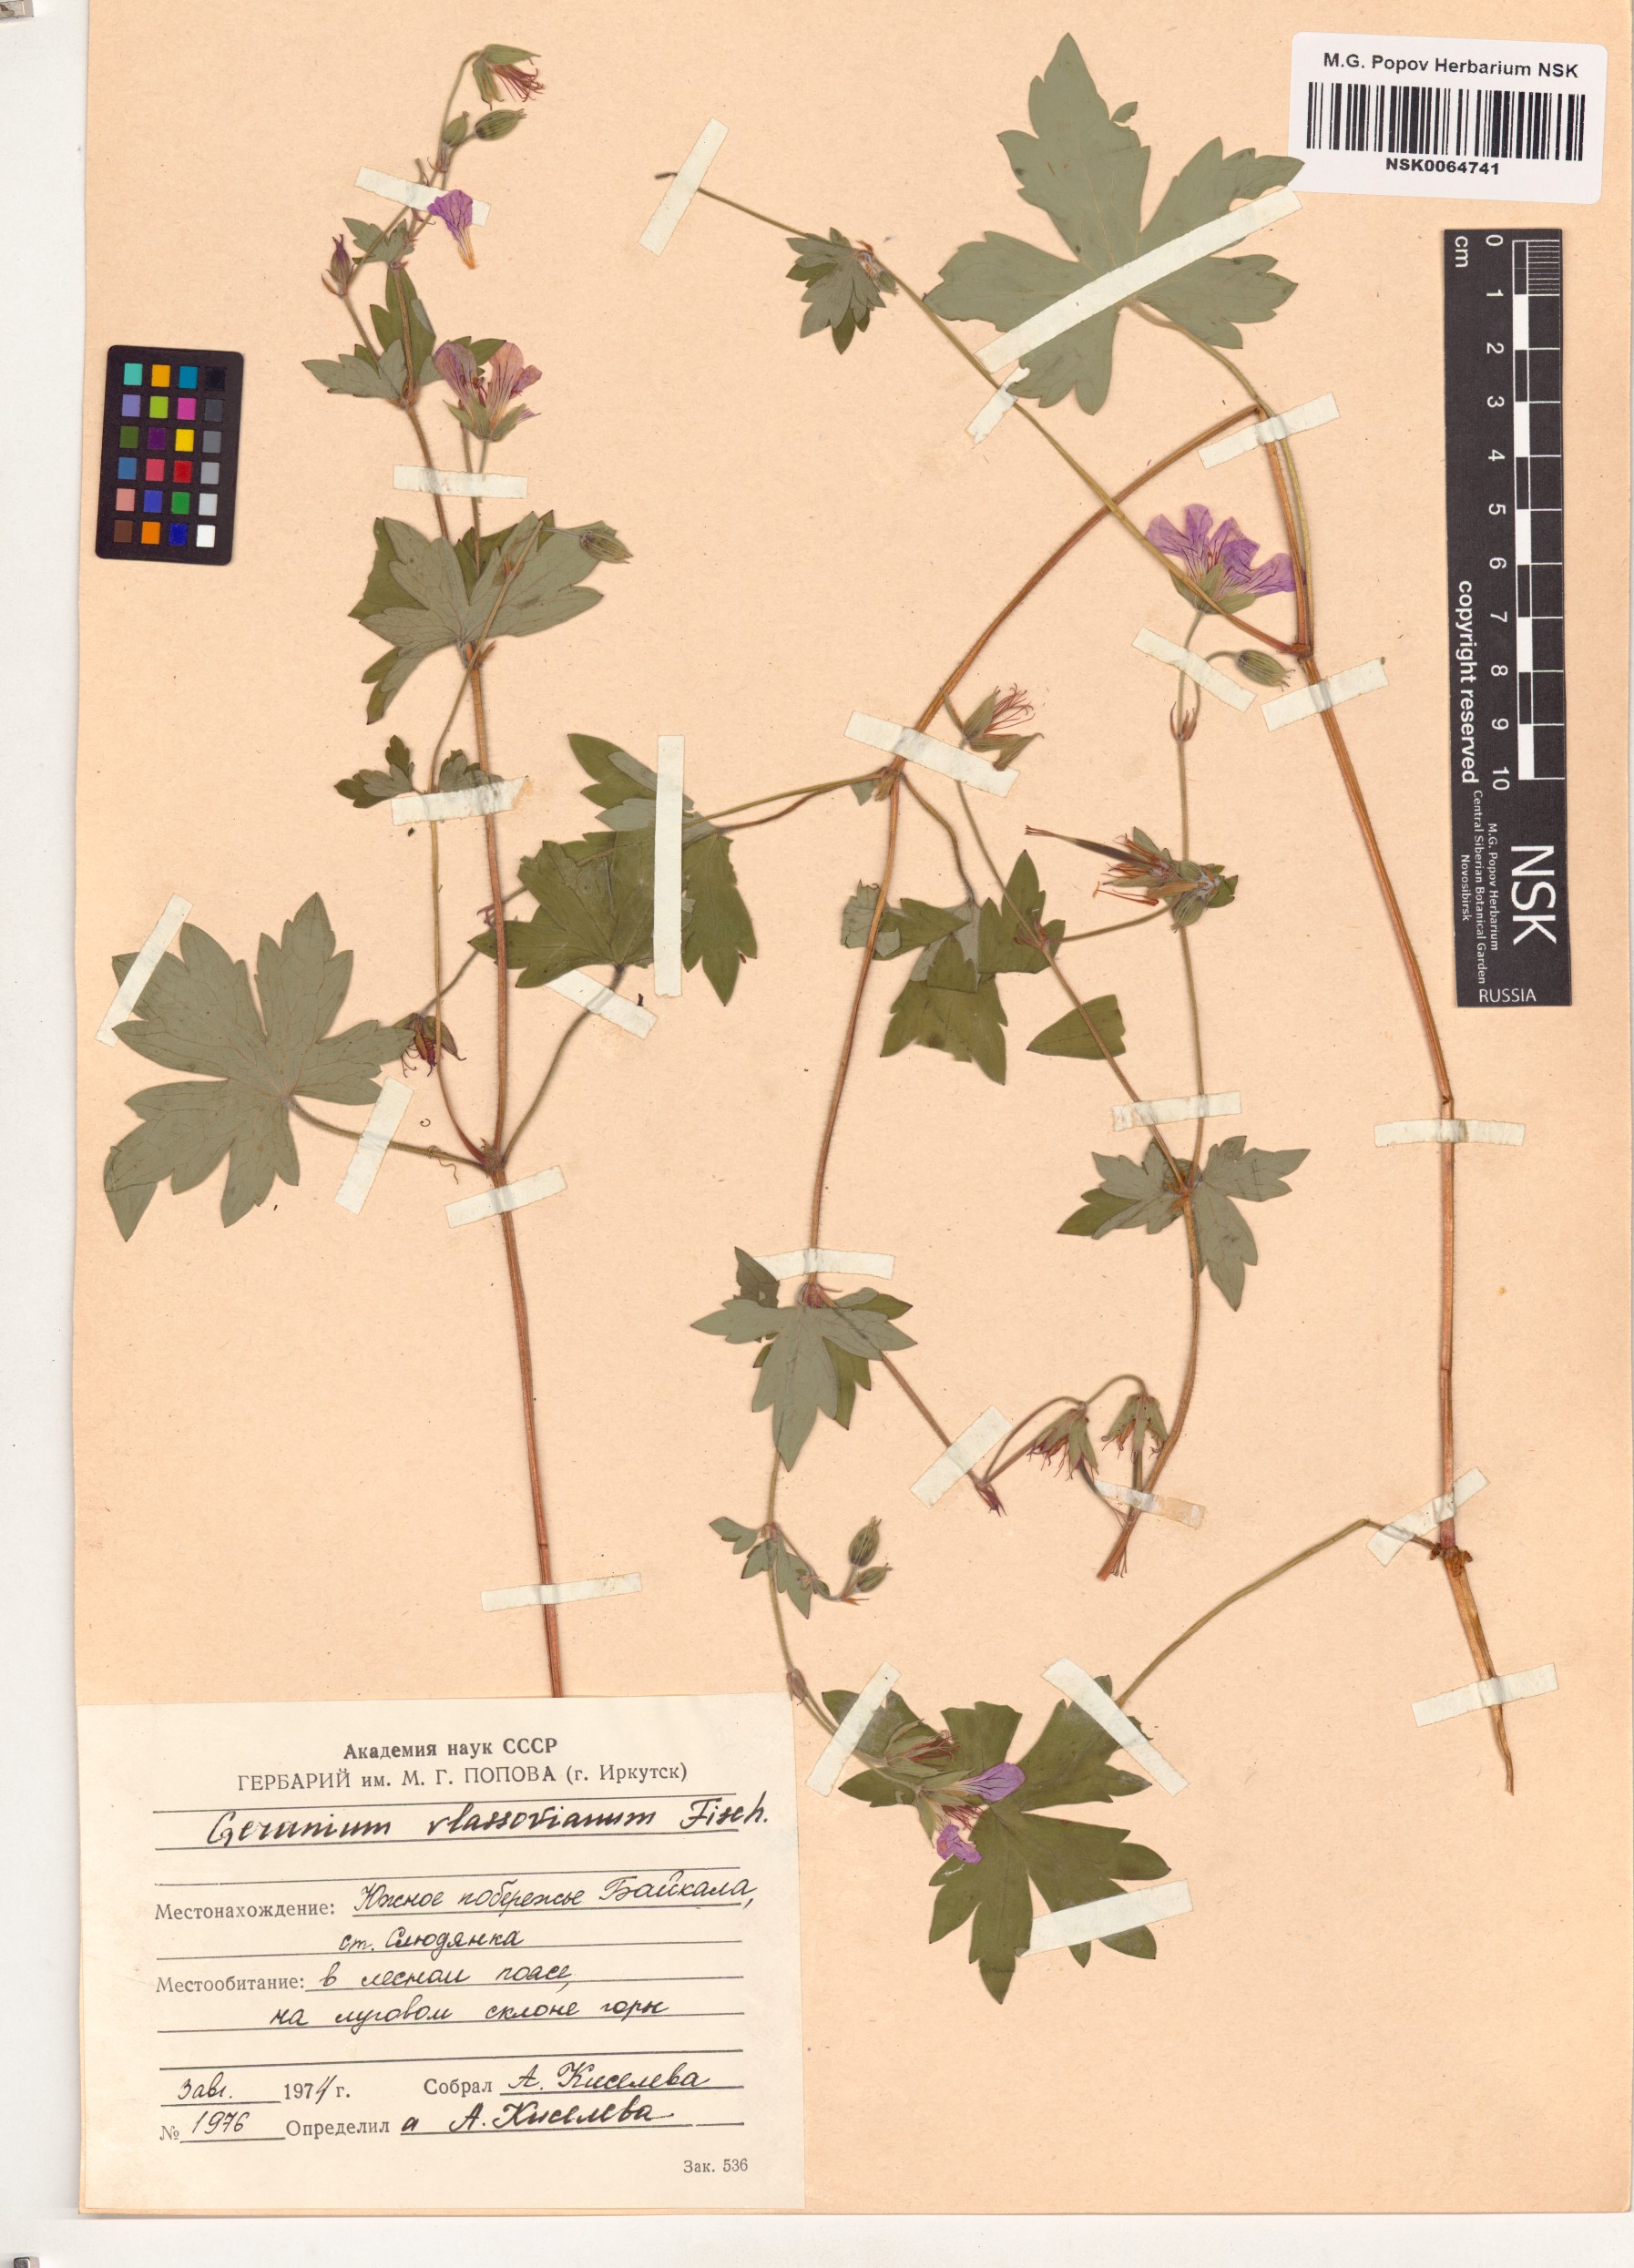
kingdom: Plantae
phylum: Tracheophyta
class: Magnoliopsida
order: Geraniales
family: Geraniaceae
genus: Geranium
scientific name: Geranium wlassovianum
